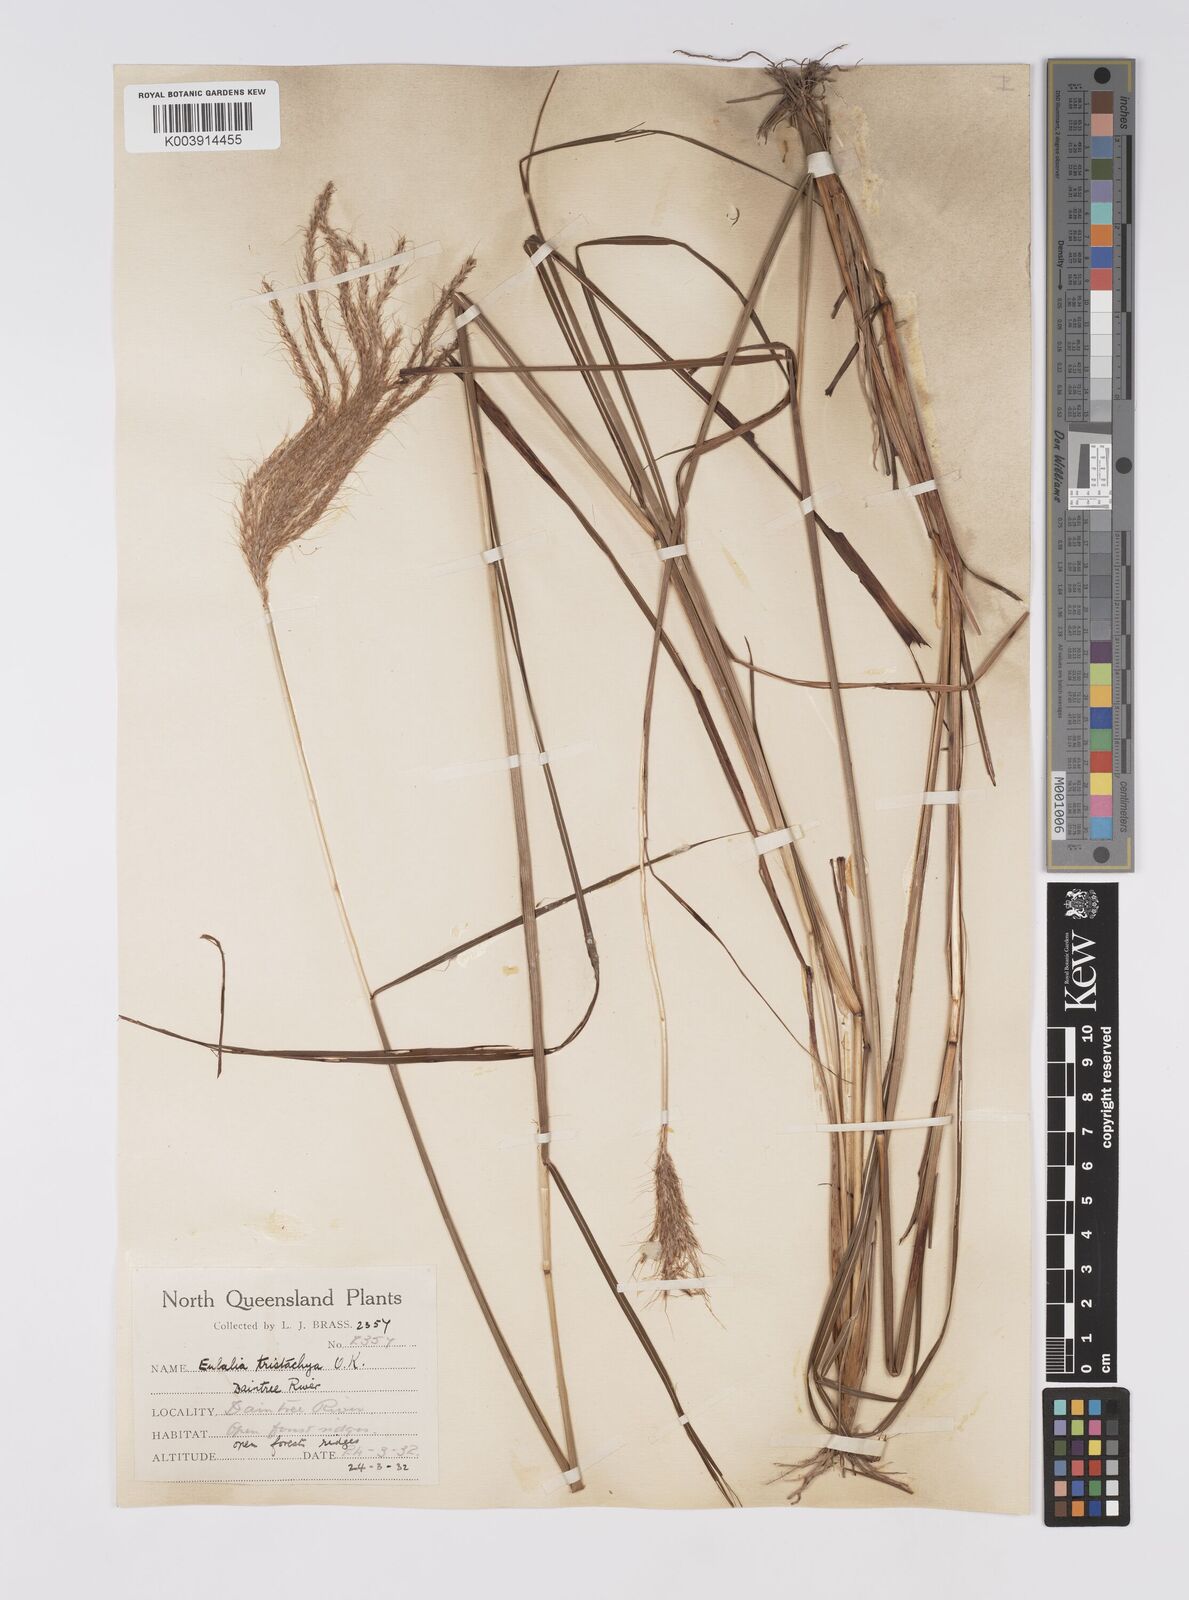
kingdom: Plantae
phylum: Tracheophyta
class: Liliopsida
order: Poales
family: Poaceae
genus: Pseudopogonatherum
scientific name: Pseudopogonatherum trispicatum
